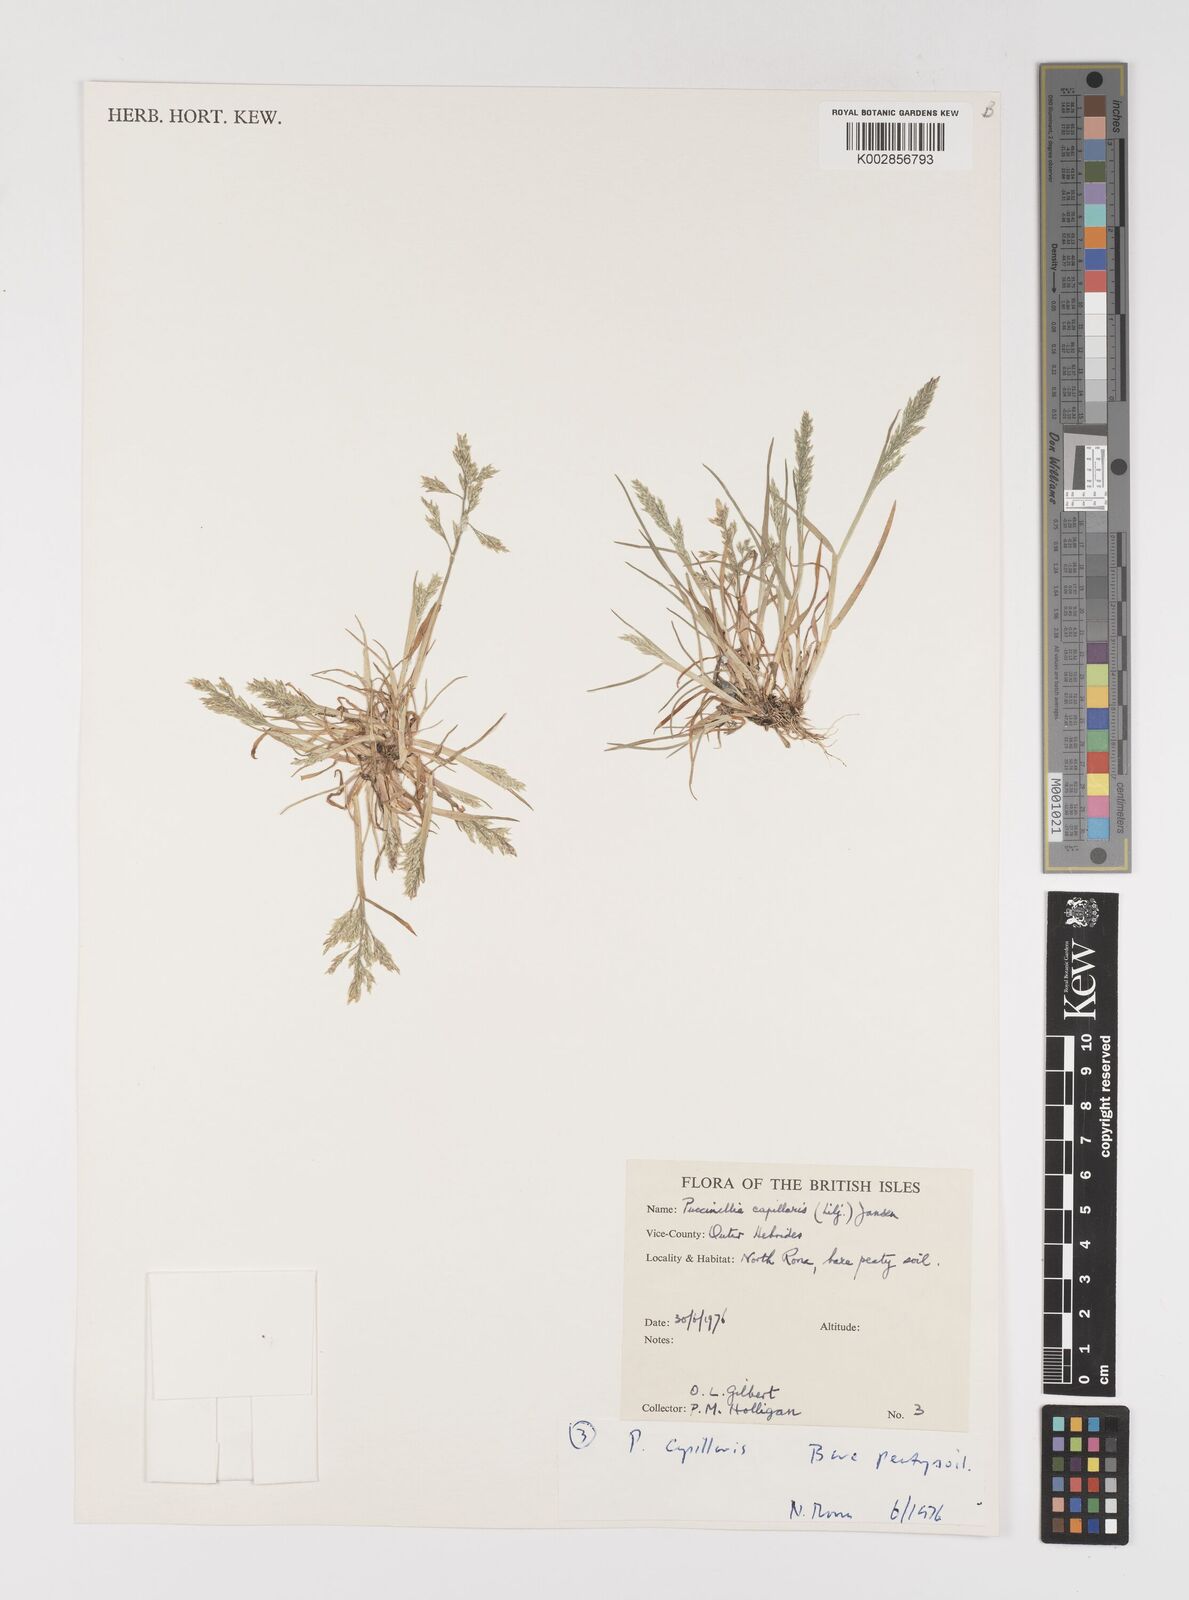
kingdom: Plantae
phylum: Tracheophyta
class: Liliopsida
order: Poales
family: Poaceae
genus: Puccinellia
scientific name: Puccinellia distans
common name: Weeping alkaligrass
